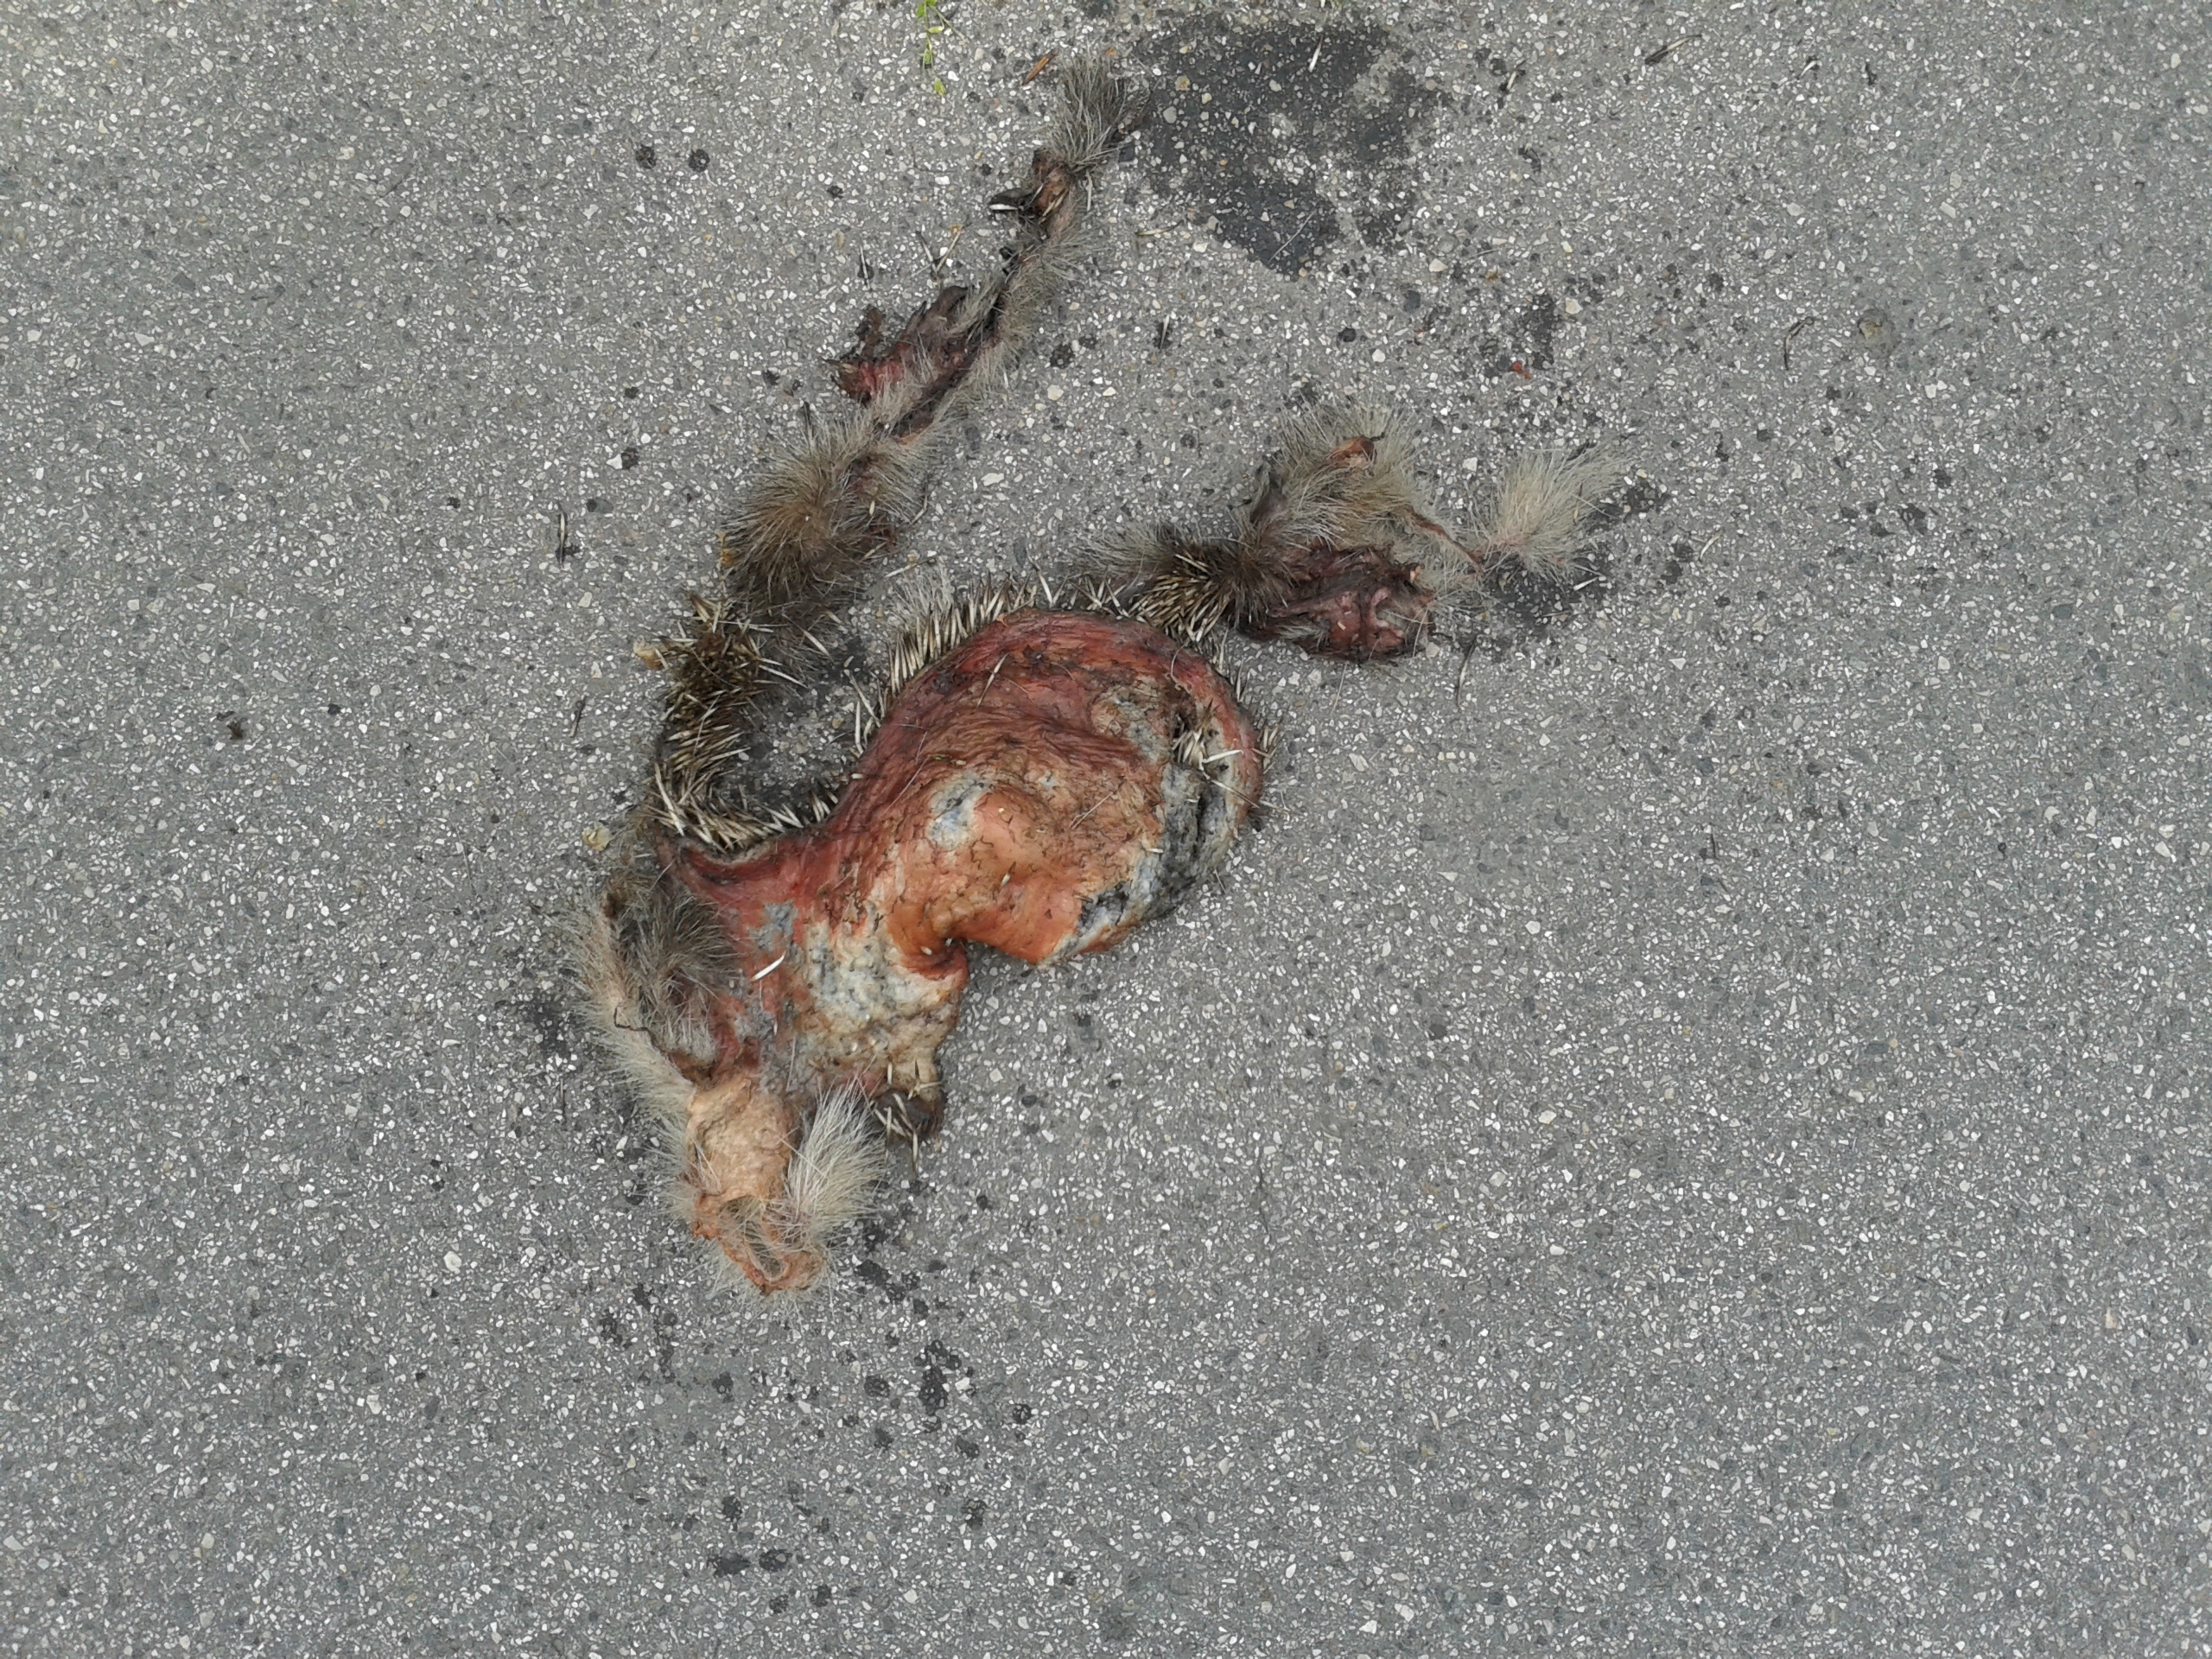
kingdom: Animalia
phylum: Chordata
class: Mammalia
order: Erinaceomorpha
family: Erinaceidae
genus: Erinaceus
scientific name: Erinaceus
